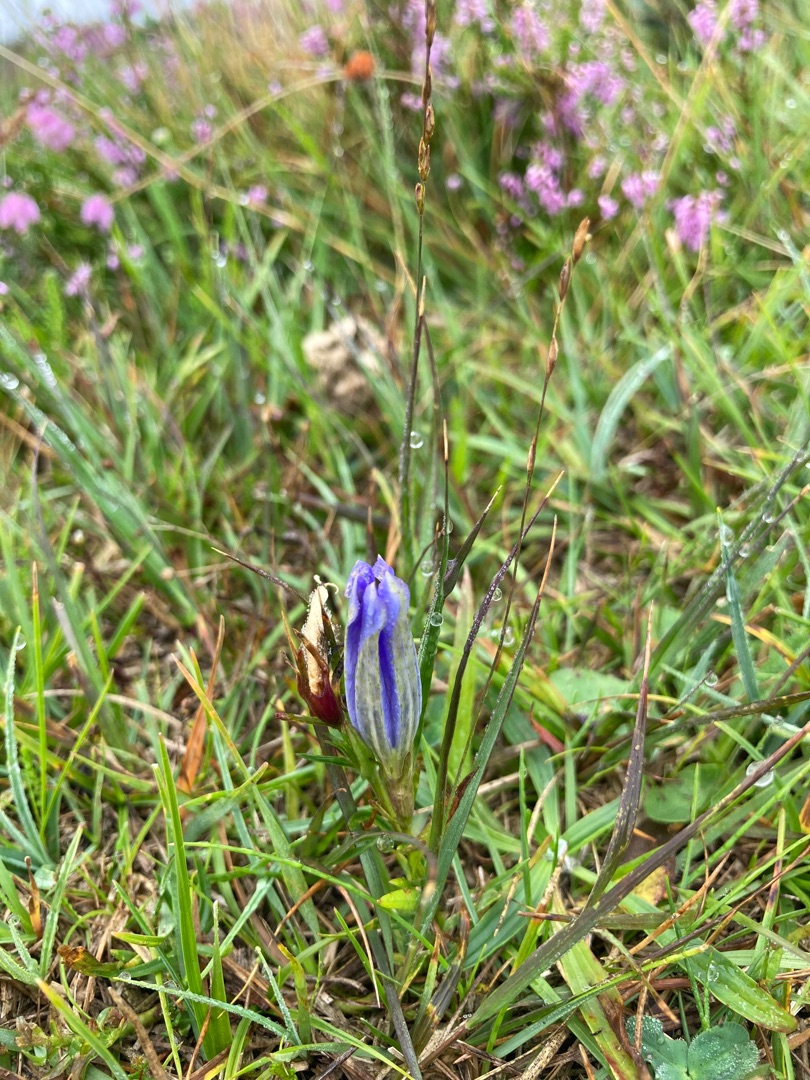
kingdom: Plantae
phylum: Tracheophyta
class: Magnoliopsida
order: Gentianales
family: Gentianaceae
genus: Gentiana
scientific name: Gentiana pneumonanthe
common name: Klokke-ensian
